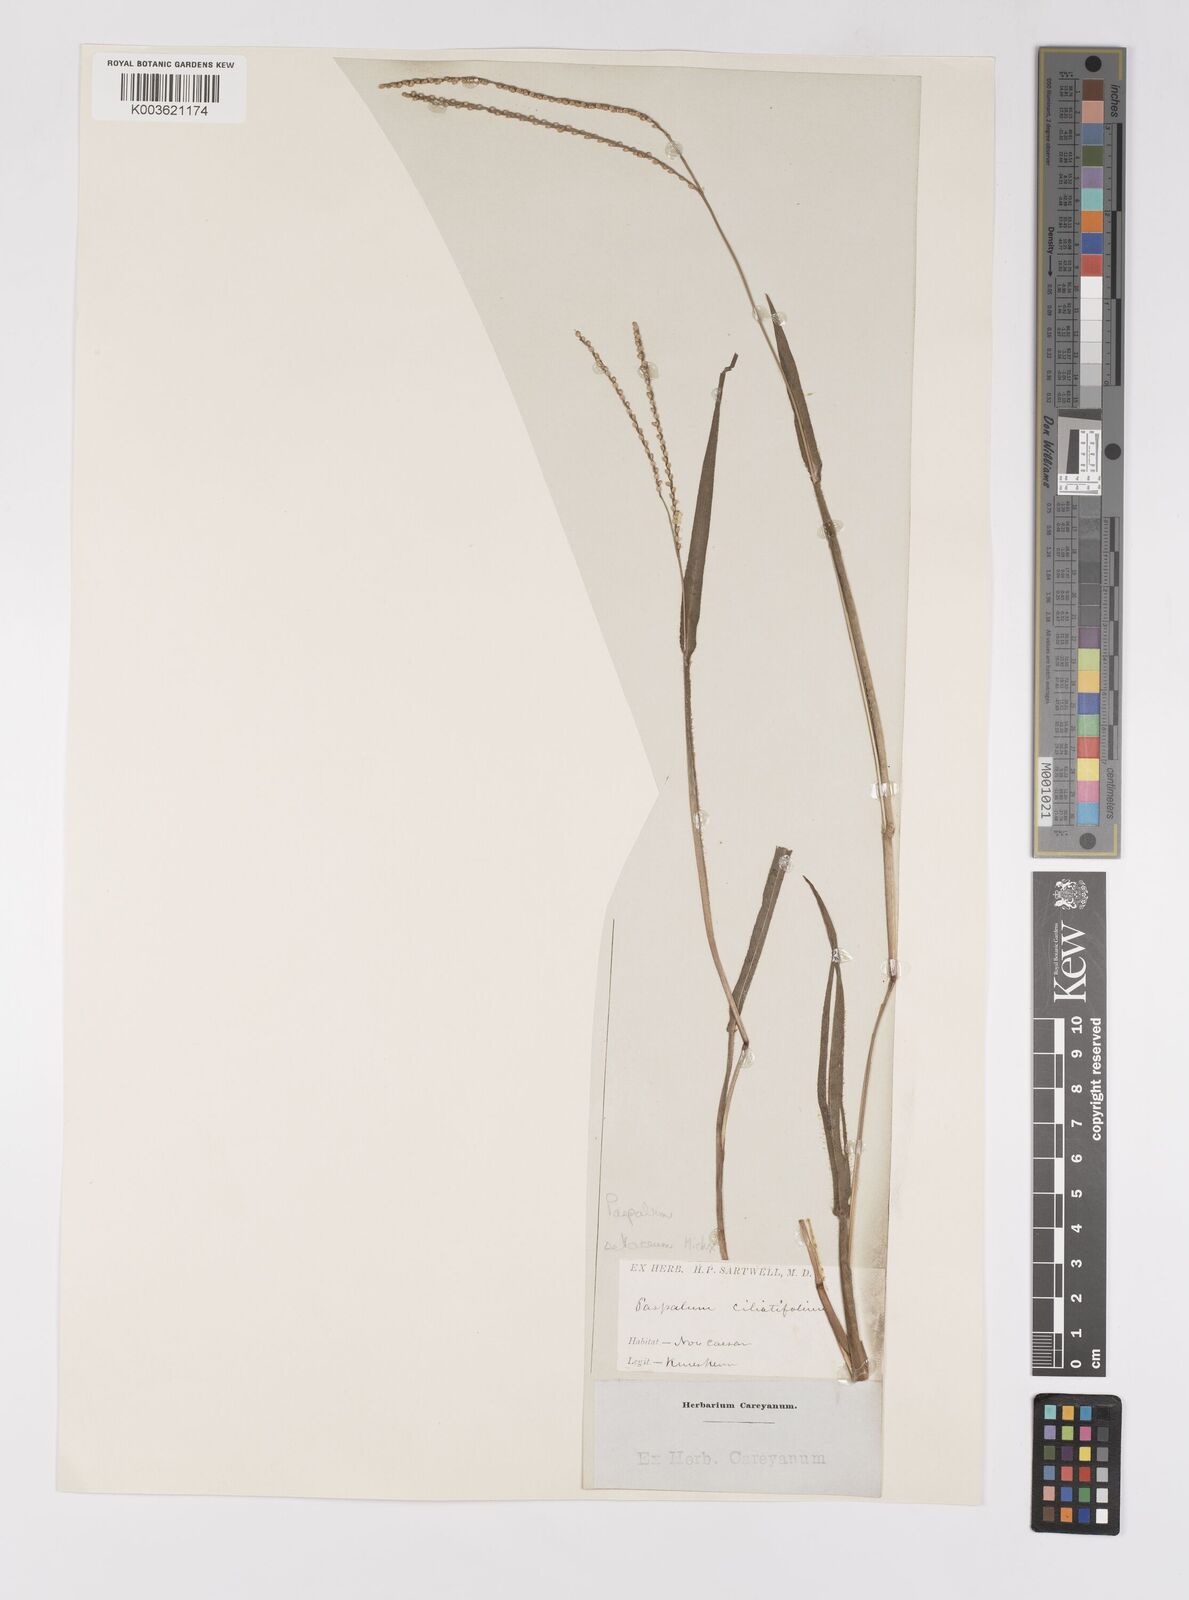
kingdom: Plantae
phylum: Tracheophyta
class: Liliopsida
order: Poales
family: Poaceae
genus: Paspalum
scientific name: Paspalum setaceum
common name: Slender paspalum
